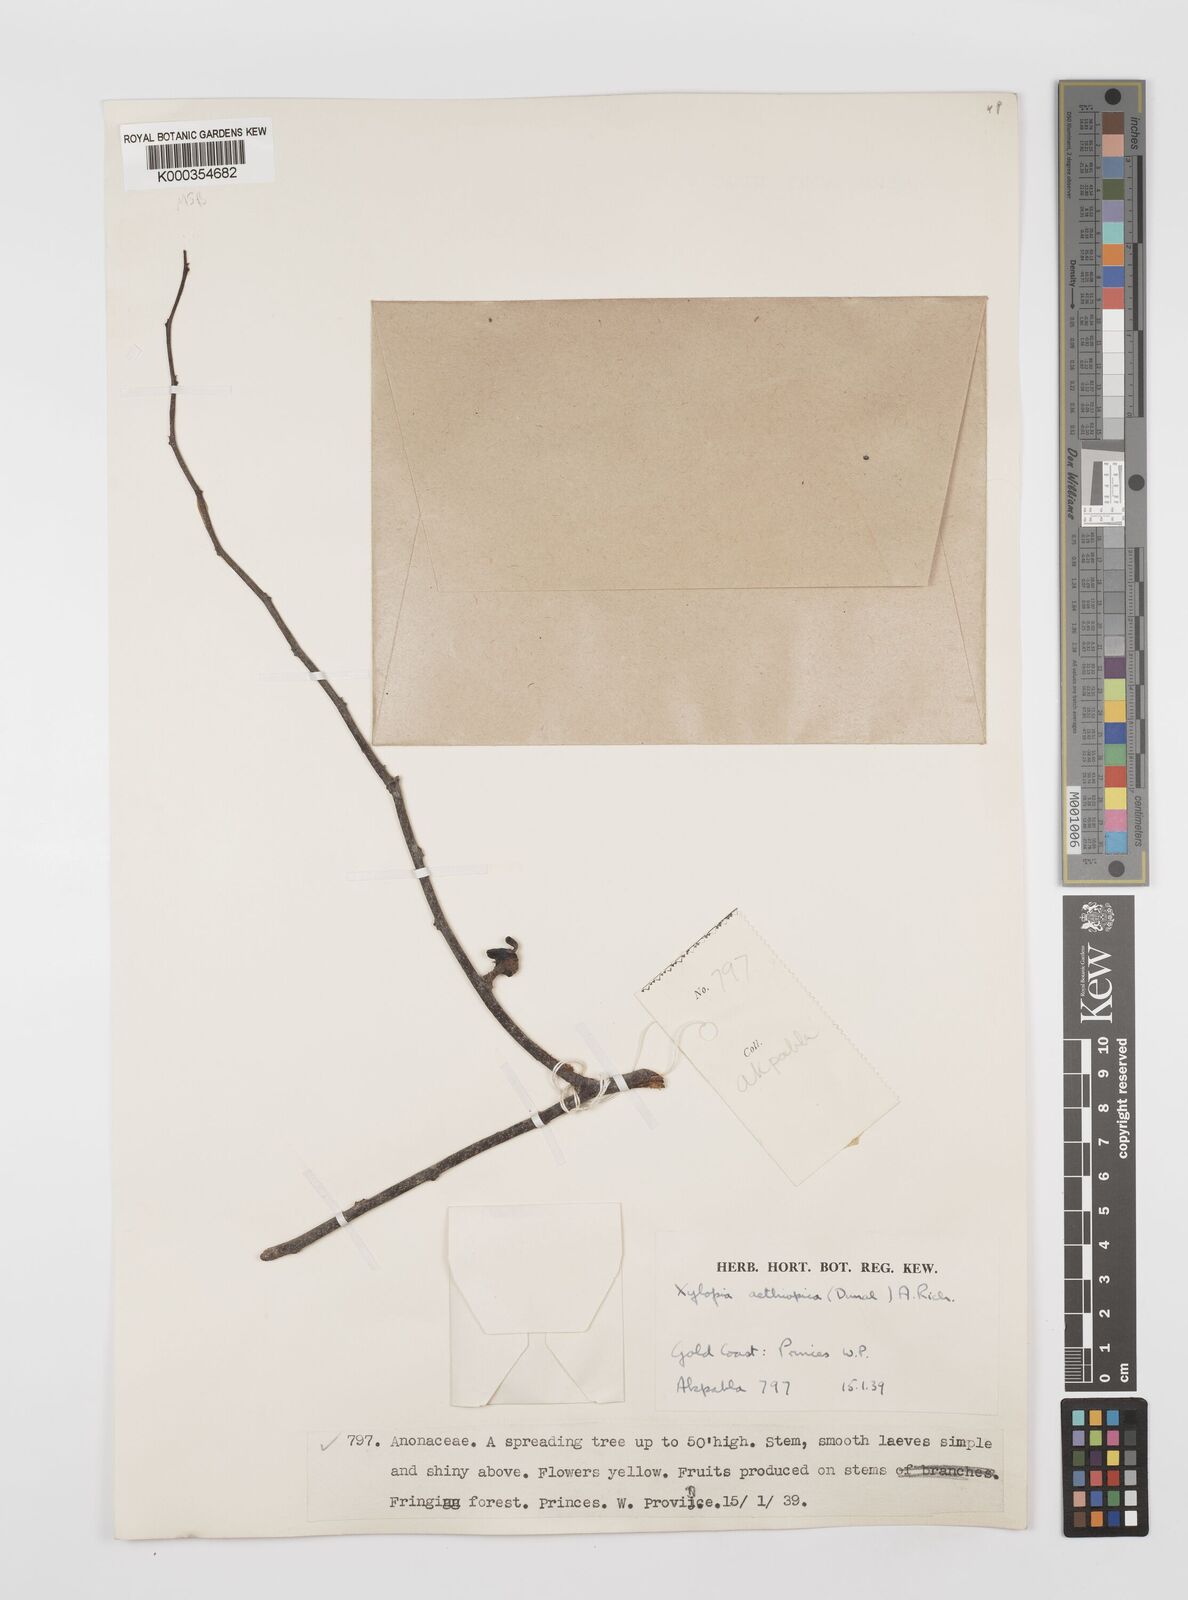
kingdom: Plantae
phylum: Tracheophyta
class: Magnoliopsida
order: Magnoliales
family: Annonaceae
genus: Xylopia
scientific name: Xylopia aethiopica
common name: Ethiopian-pepper
